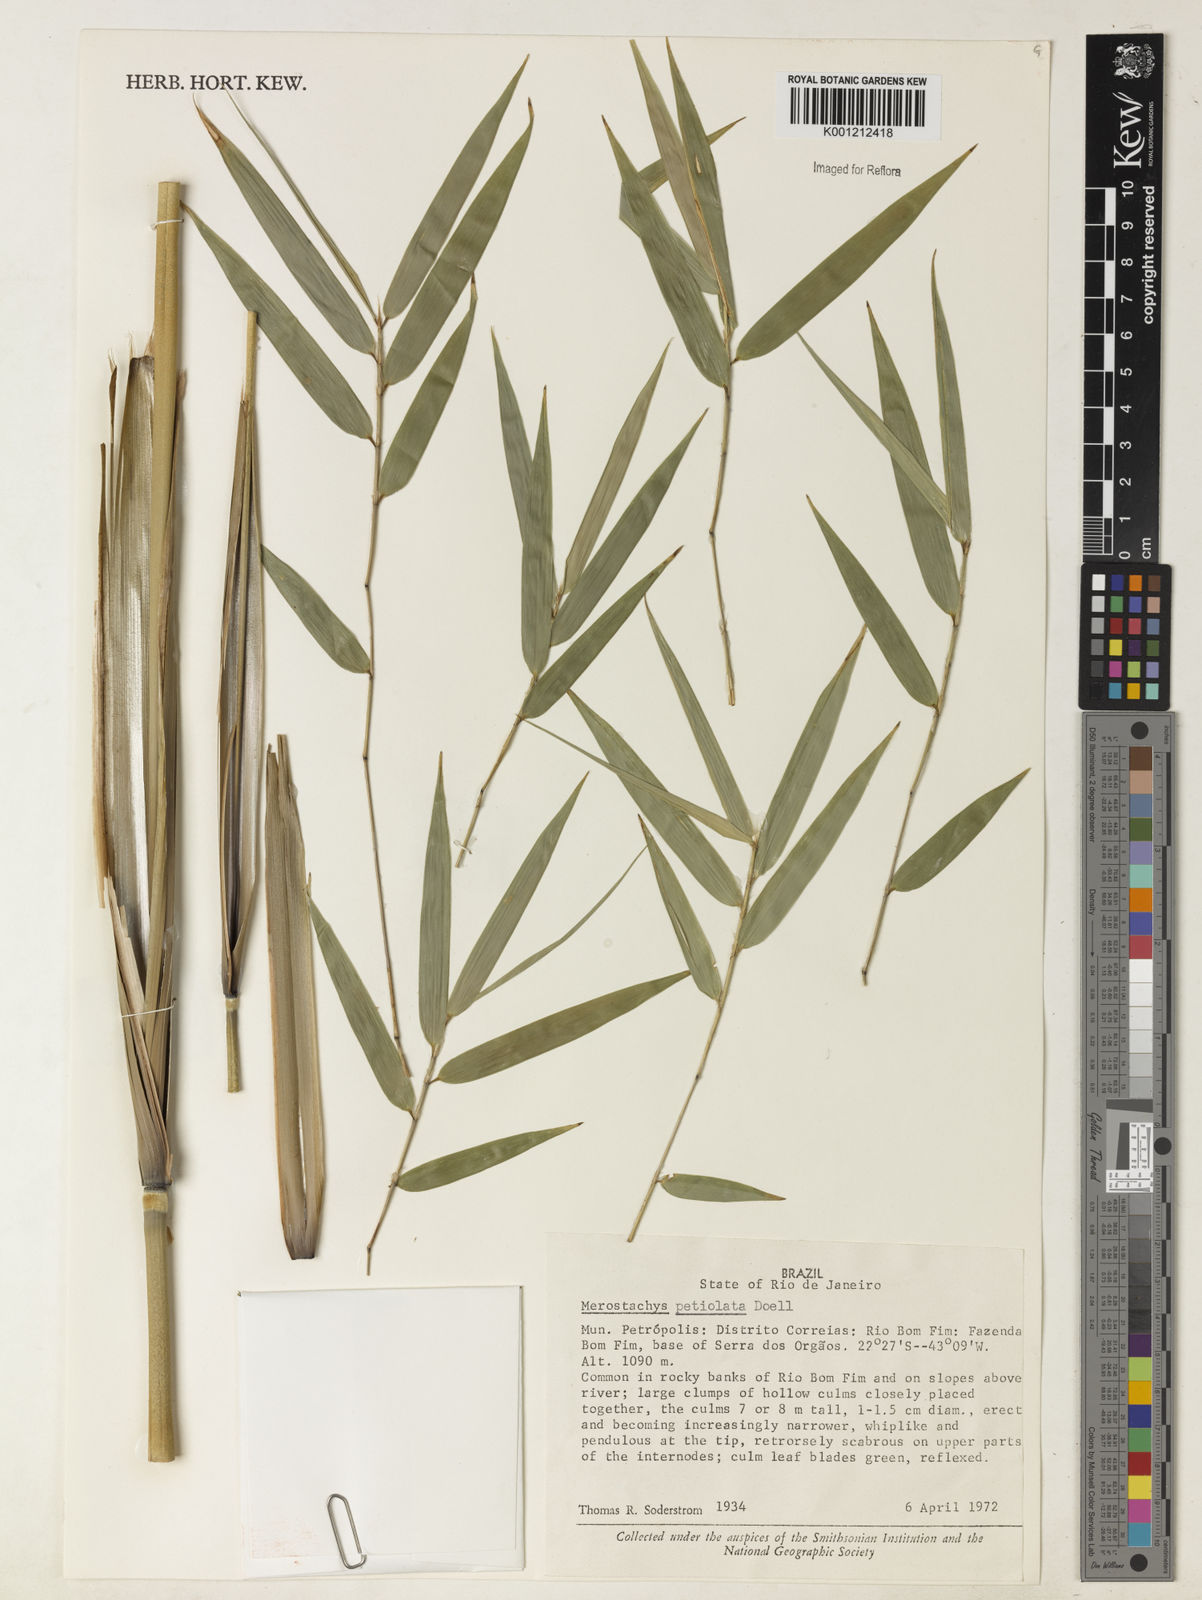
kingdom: Plantae
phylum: Tracheophyta
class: Liliopsida
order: Poales
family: Poaceae
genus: Merostachys
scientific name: Merostachys
